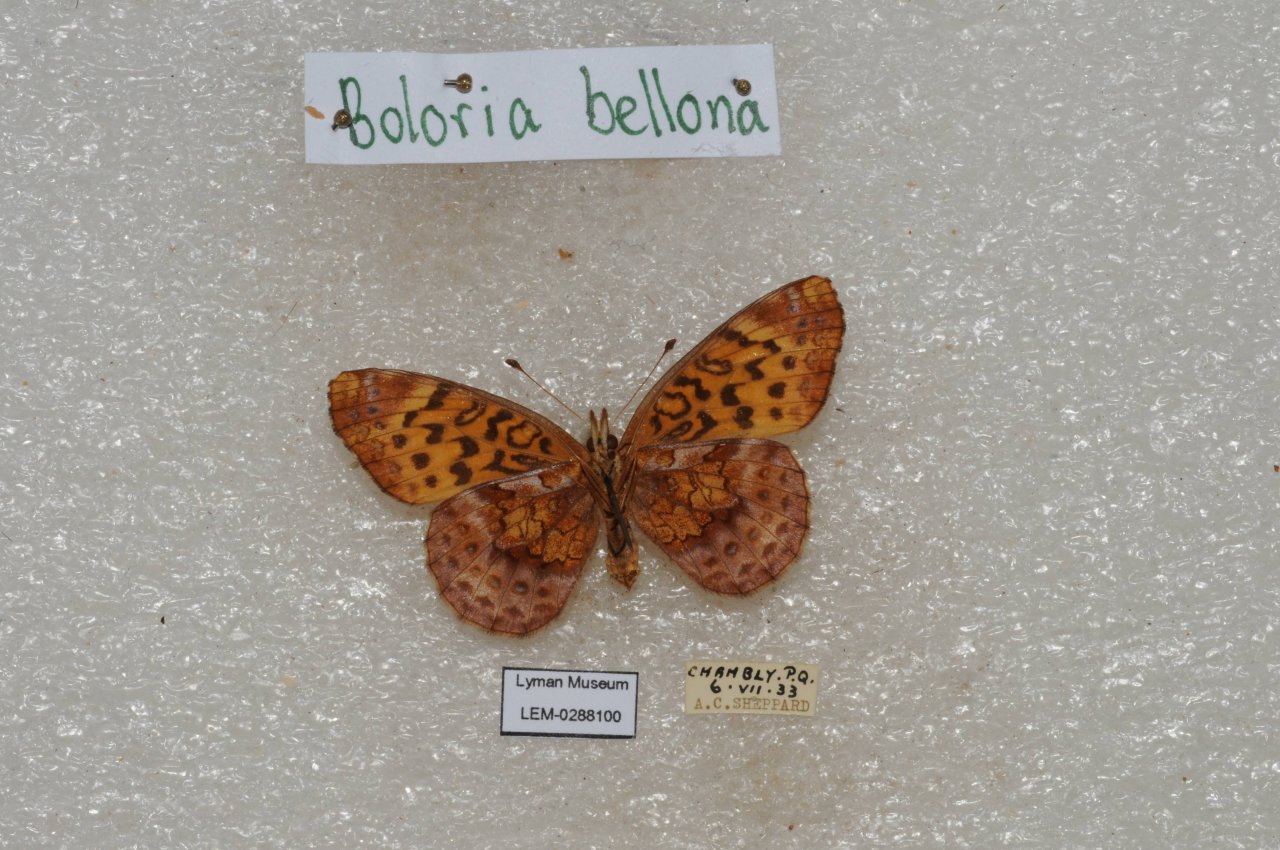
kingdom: Animalia
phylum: Arthropoda
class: Insecta
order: Lepidoptera
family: Nymphalidae
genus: Clossiana
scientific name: Clossiana toddi
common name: Meadow Fritillary
